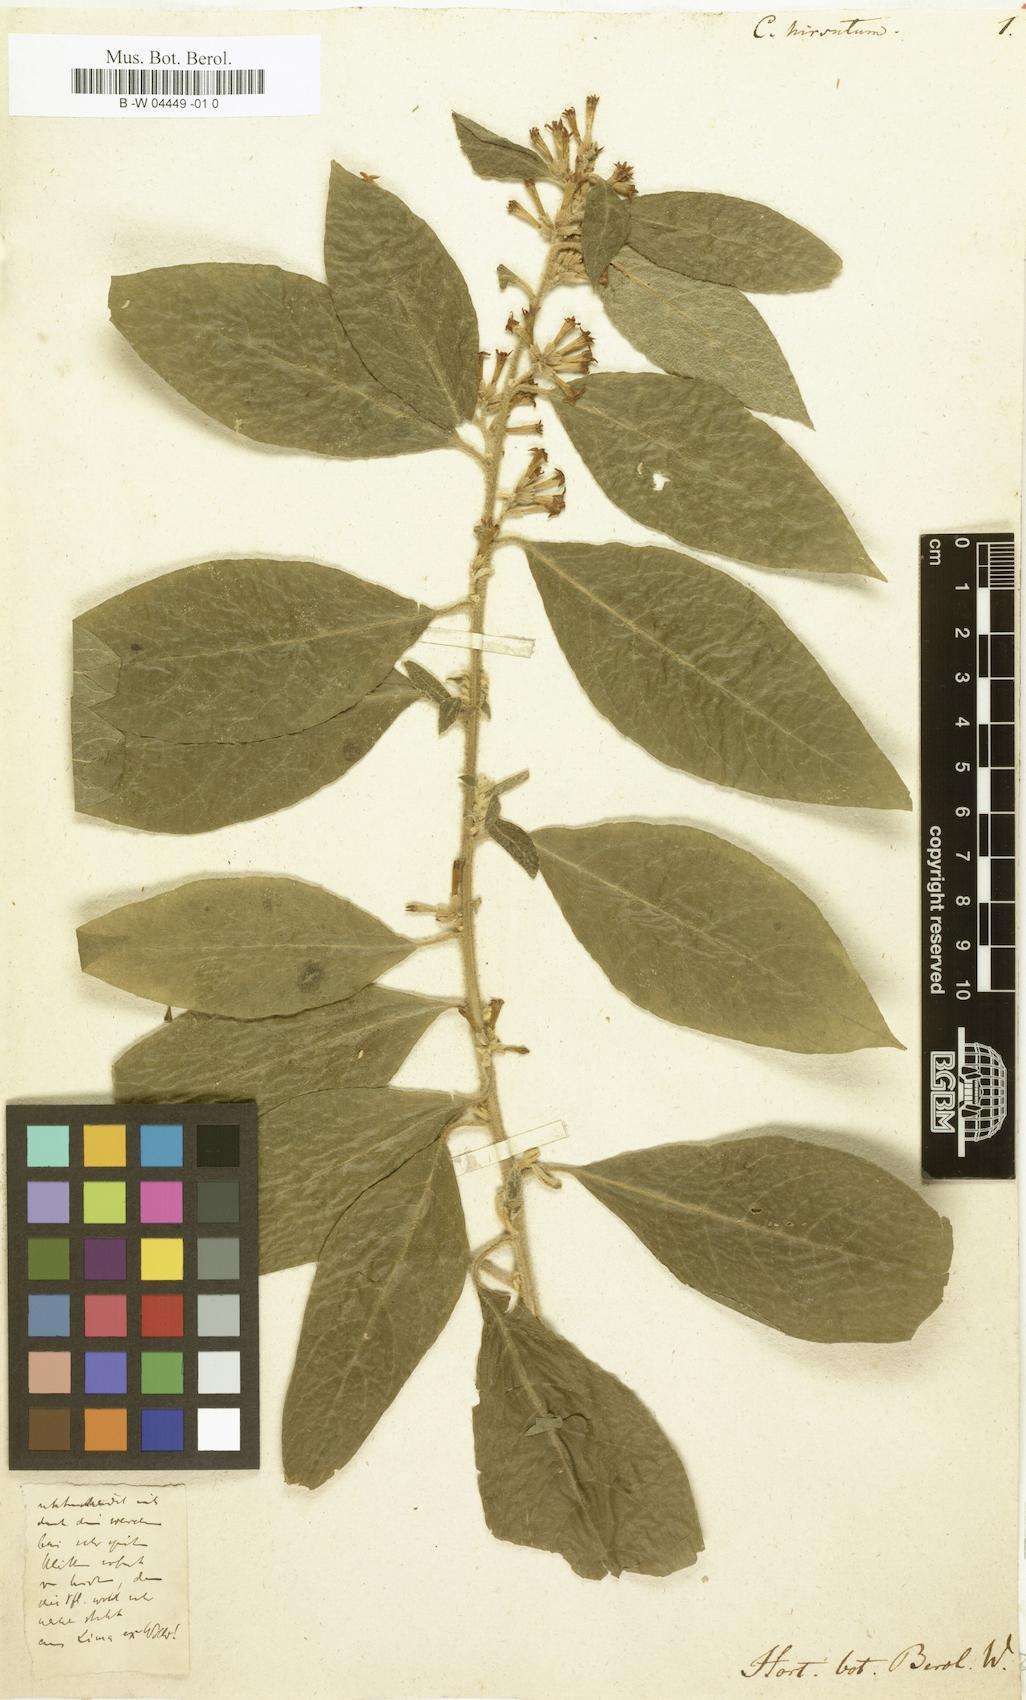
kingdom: Plantae
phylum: Tracheophyta
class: Magnoliopsida
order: Solanales
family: Solanaceae
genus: Cestrum
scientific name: Cestrum tomentosum
